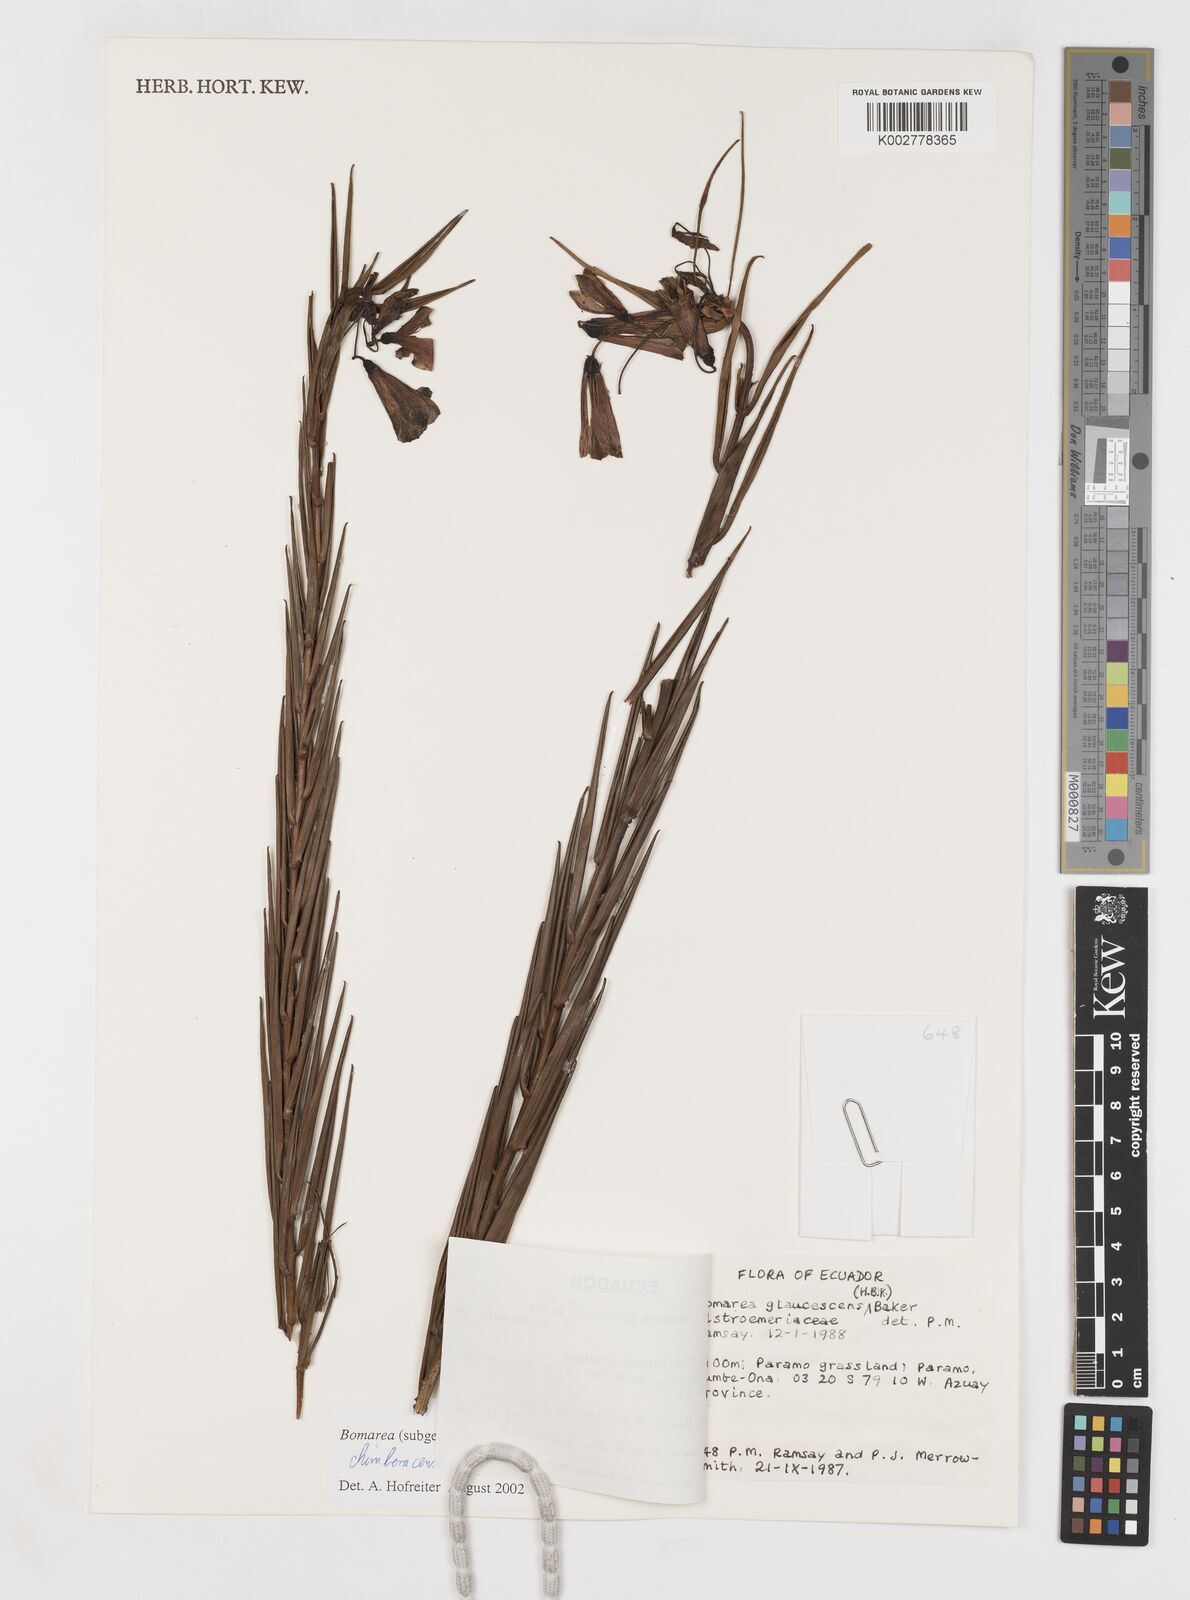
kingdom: Plantae
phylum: Tracheophyta
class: Liliopsida
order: Liliales
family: Alstroemeriaceae
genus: Bomarea
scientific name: Bomarea chimboracensis
